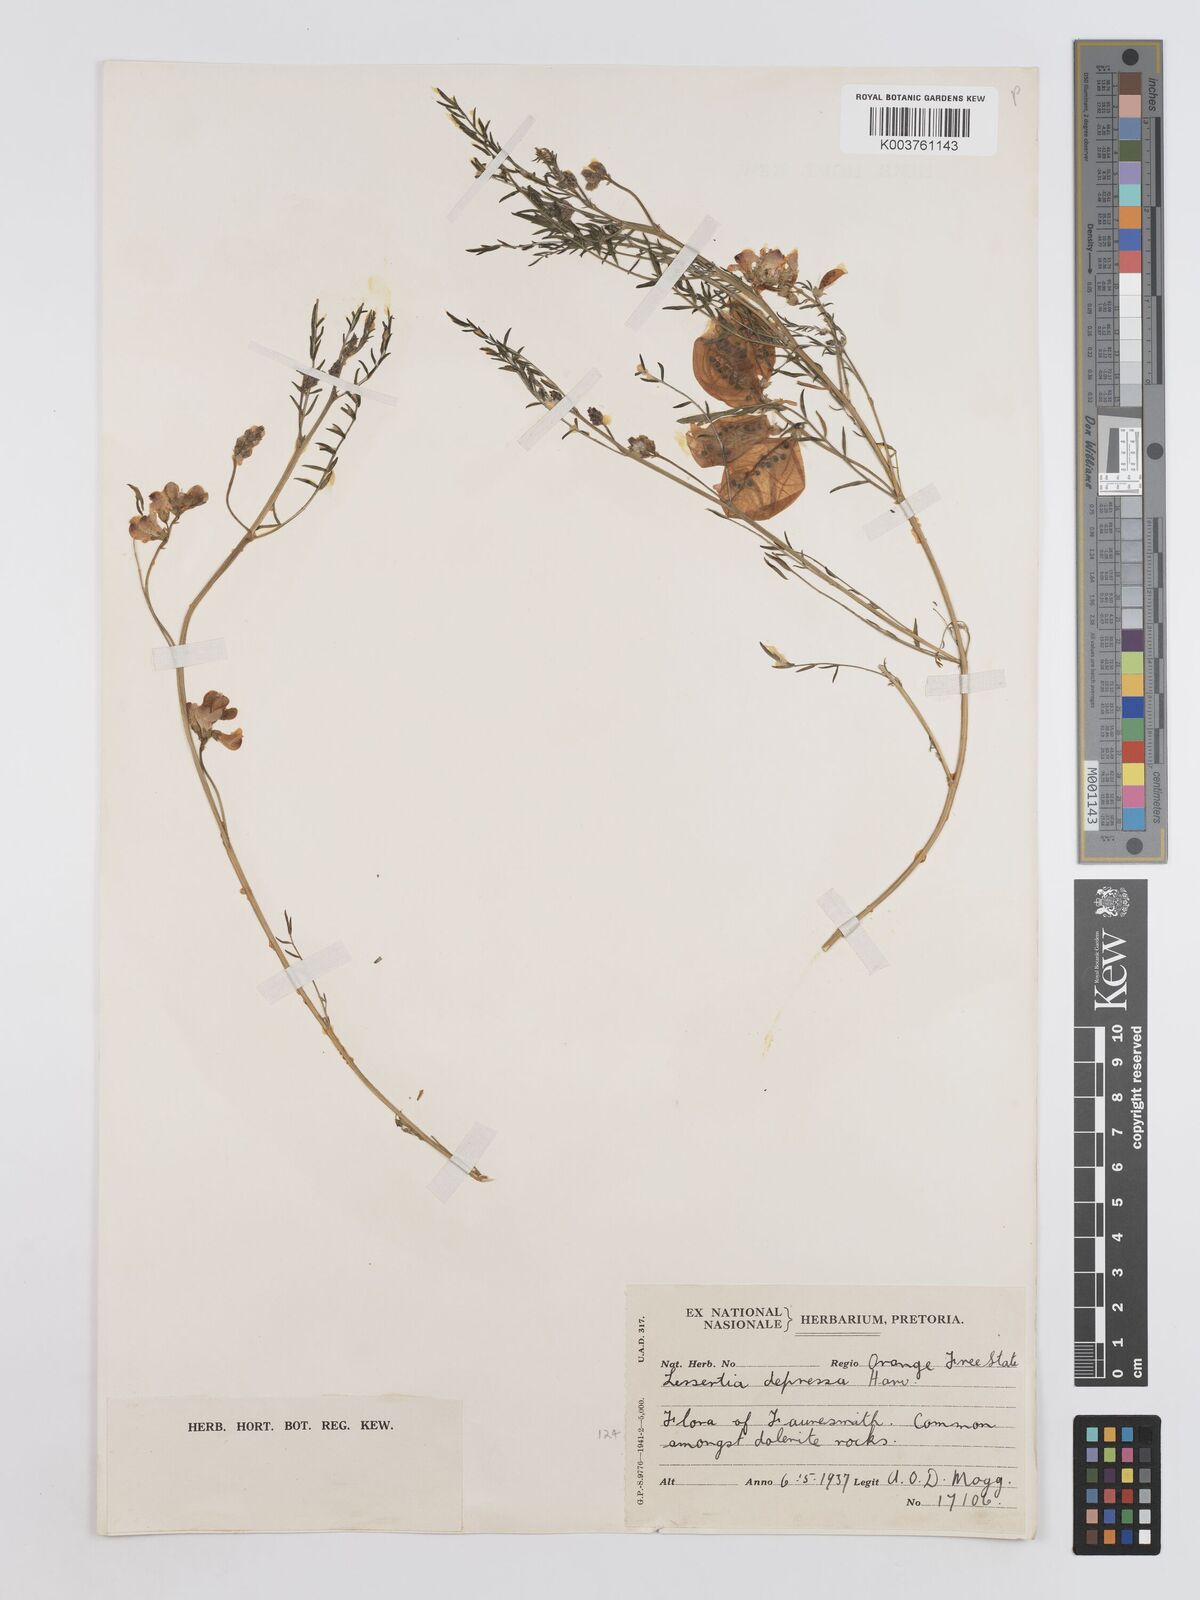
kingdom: Plantae
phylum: Tracheophyta
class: Magnoliopsida
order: Fabales
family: Fabaceae
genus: Lessertia
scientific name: Lessertia depressa
